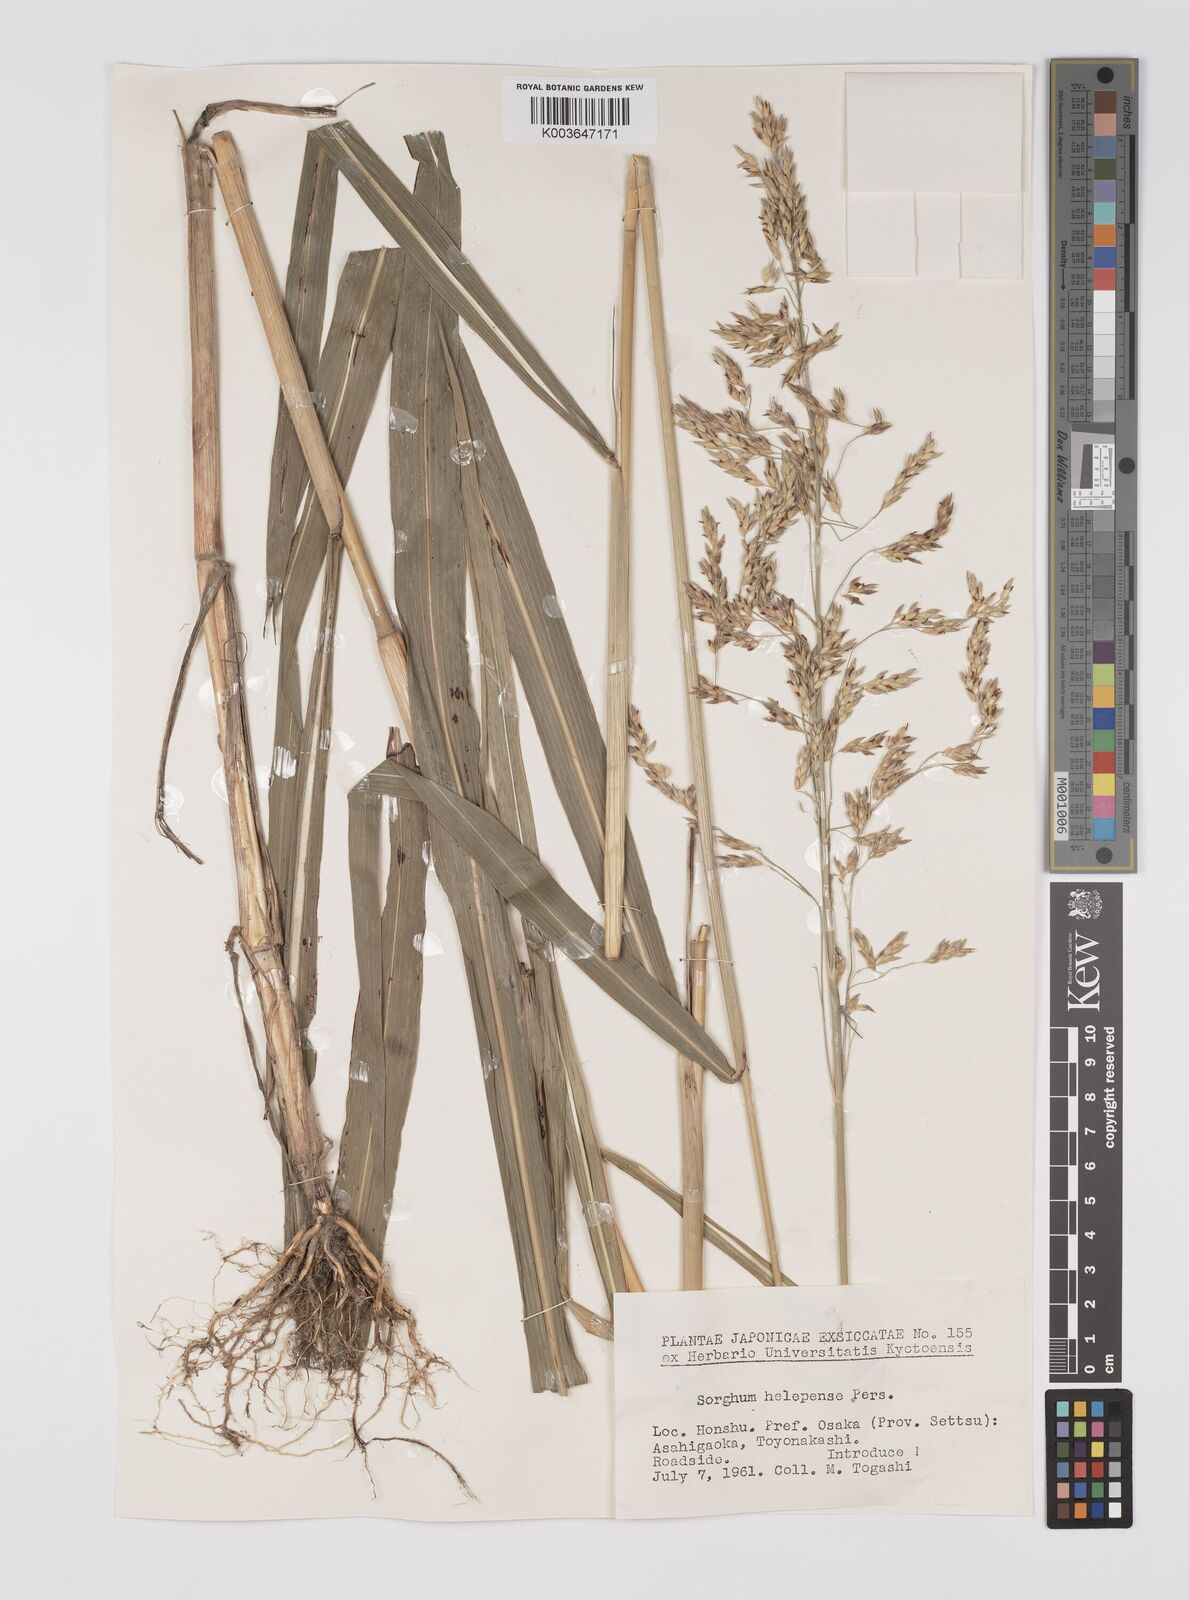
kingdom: Plantae
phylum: Tracheophyta
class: Liliopsida
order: Poales
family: Poaceae
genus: Sorghum
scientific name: Sorghum halepense
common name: Johnson-grass
